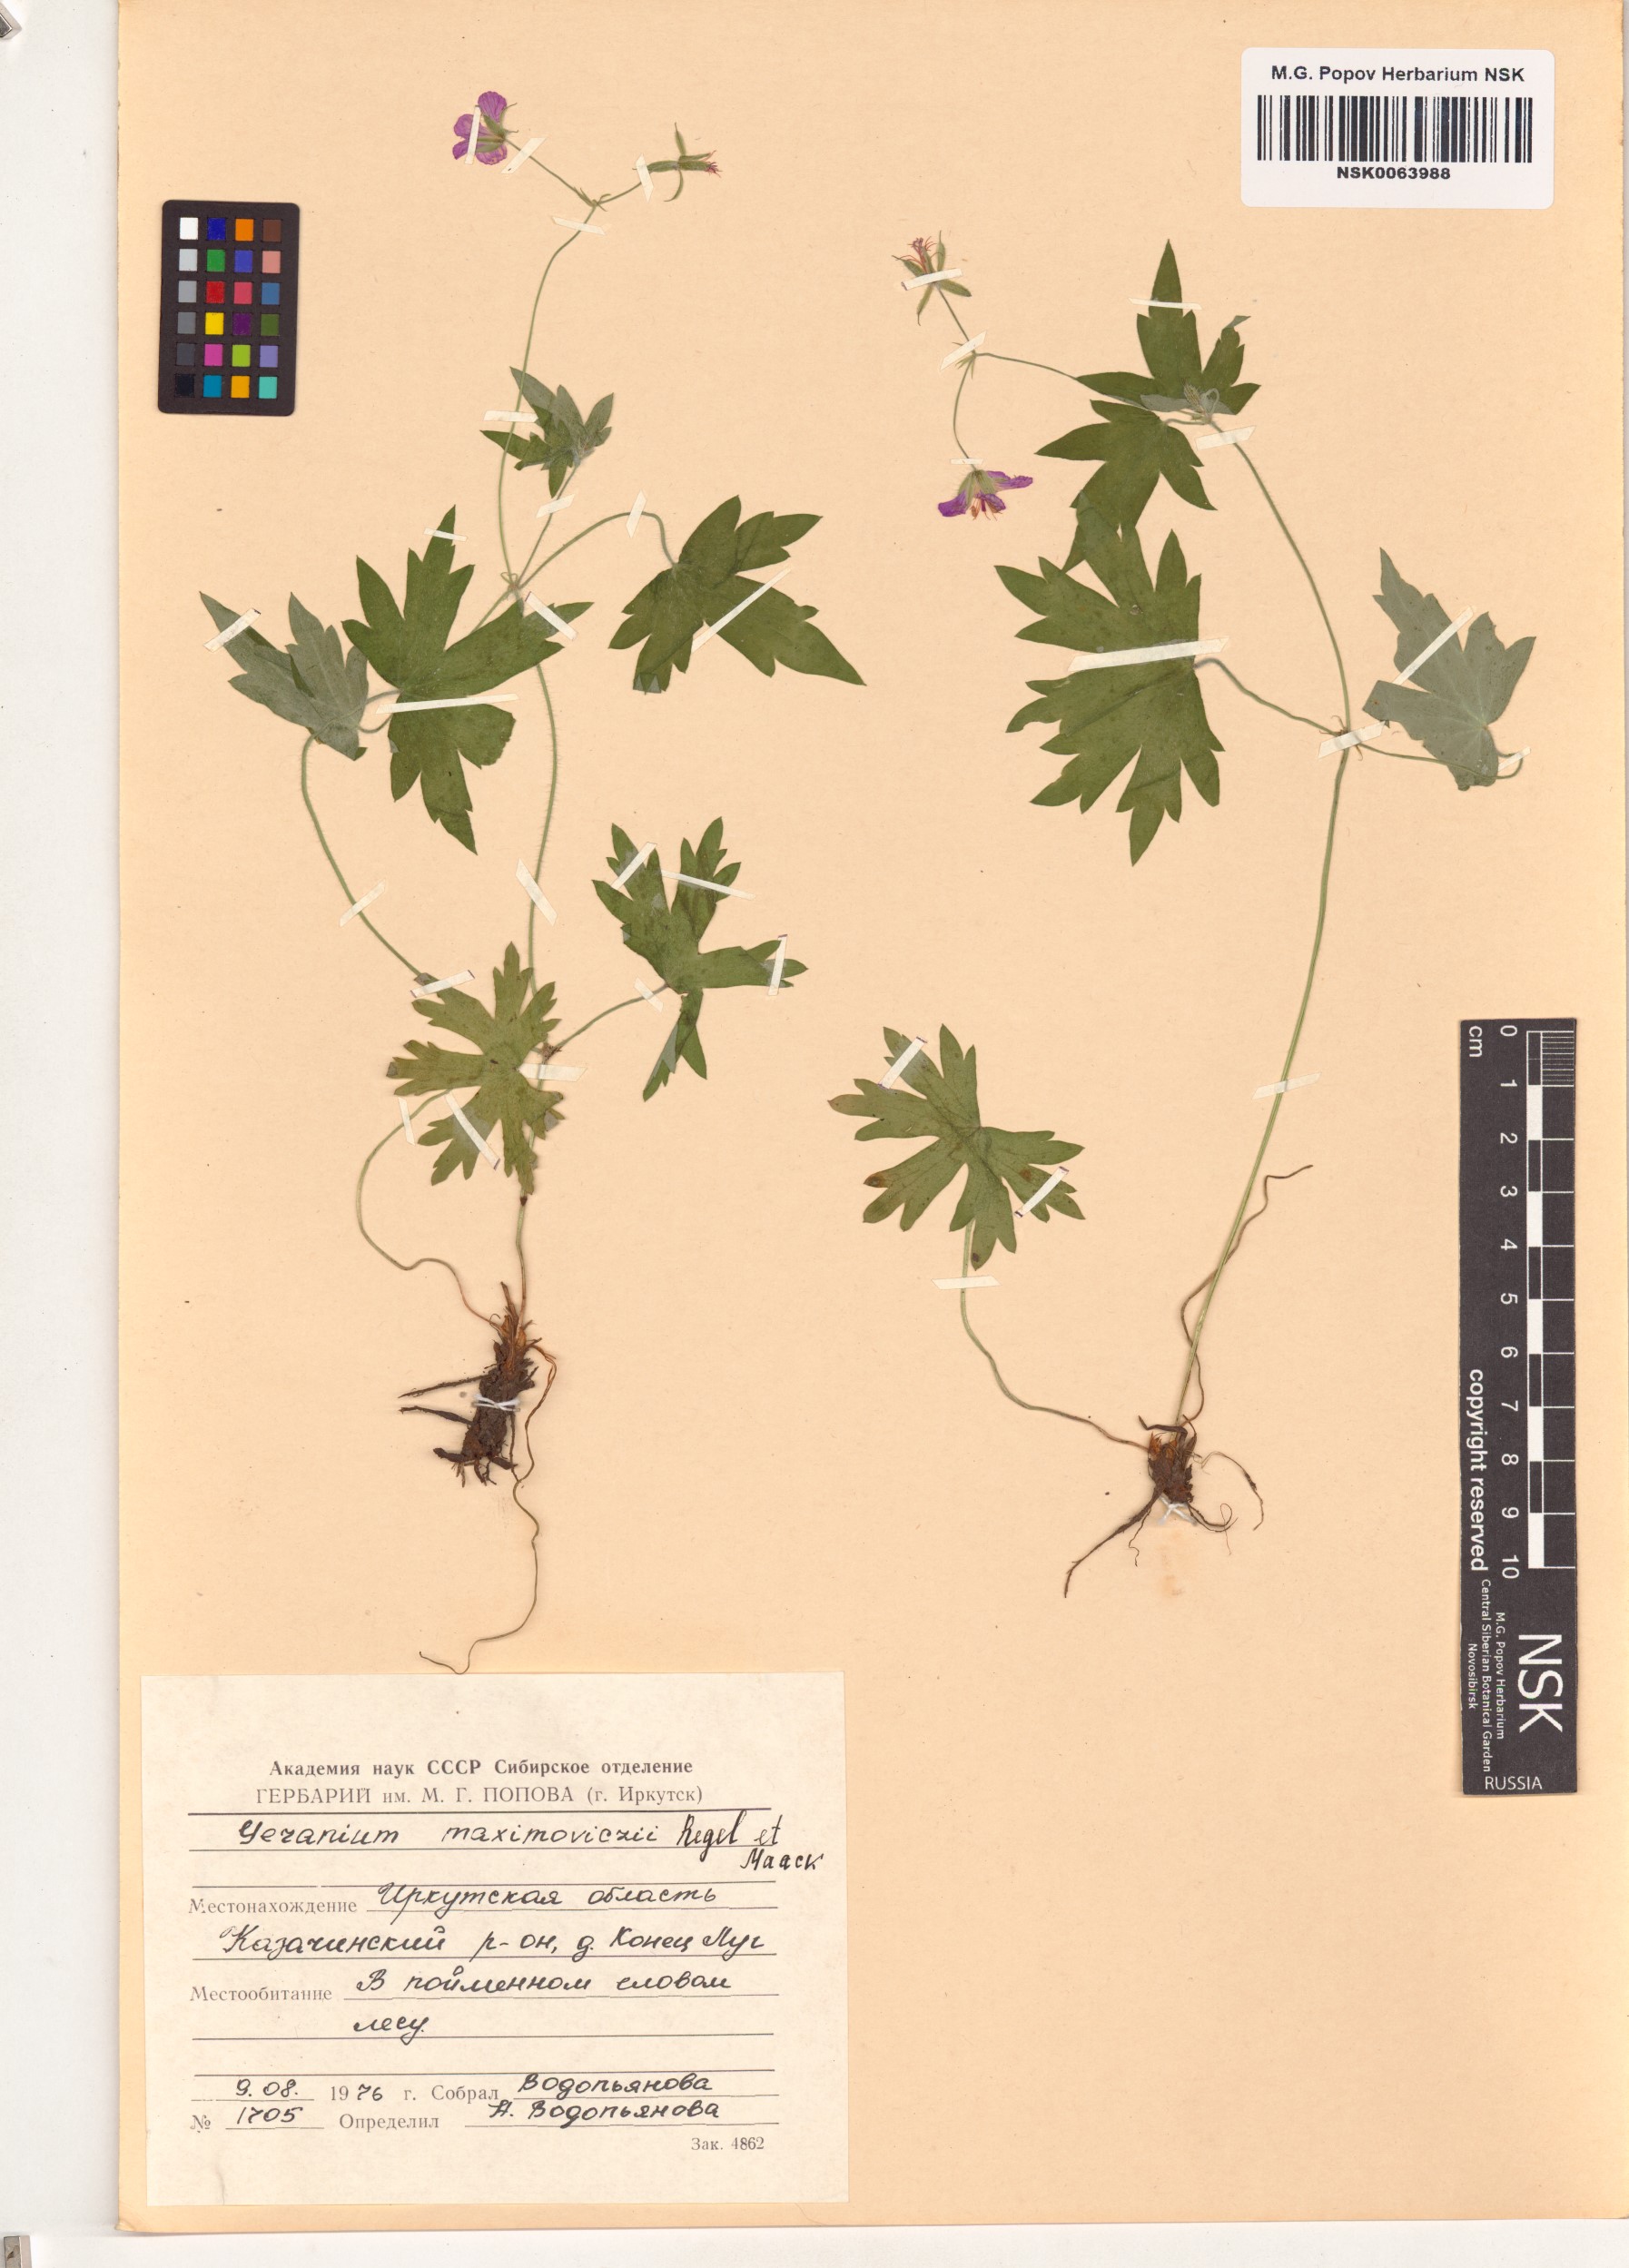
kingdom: Plantae
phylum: Tracheophyta
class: Magnoliopsida
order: Geraniales
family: Geraniaceae
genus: Geranium
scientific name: Geranium maximowiczii
